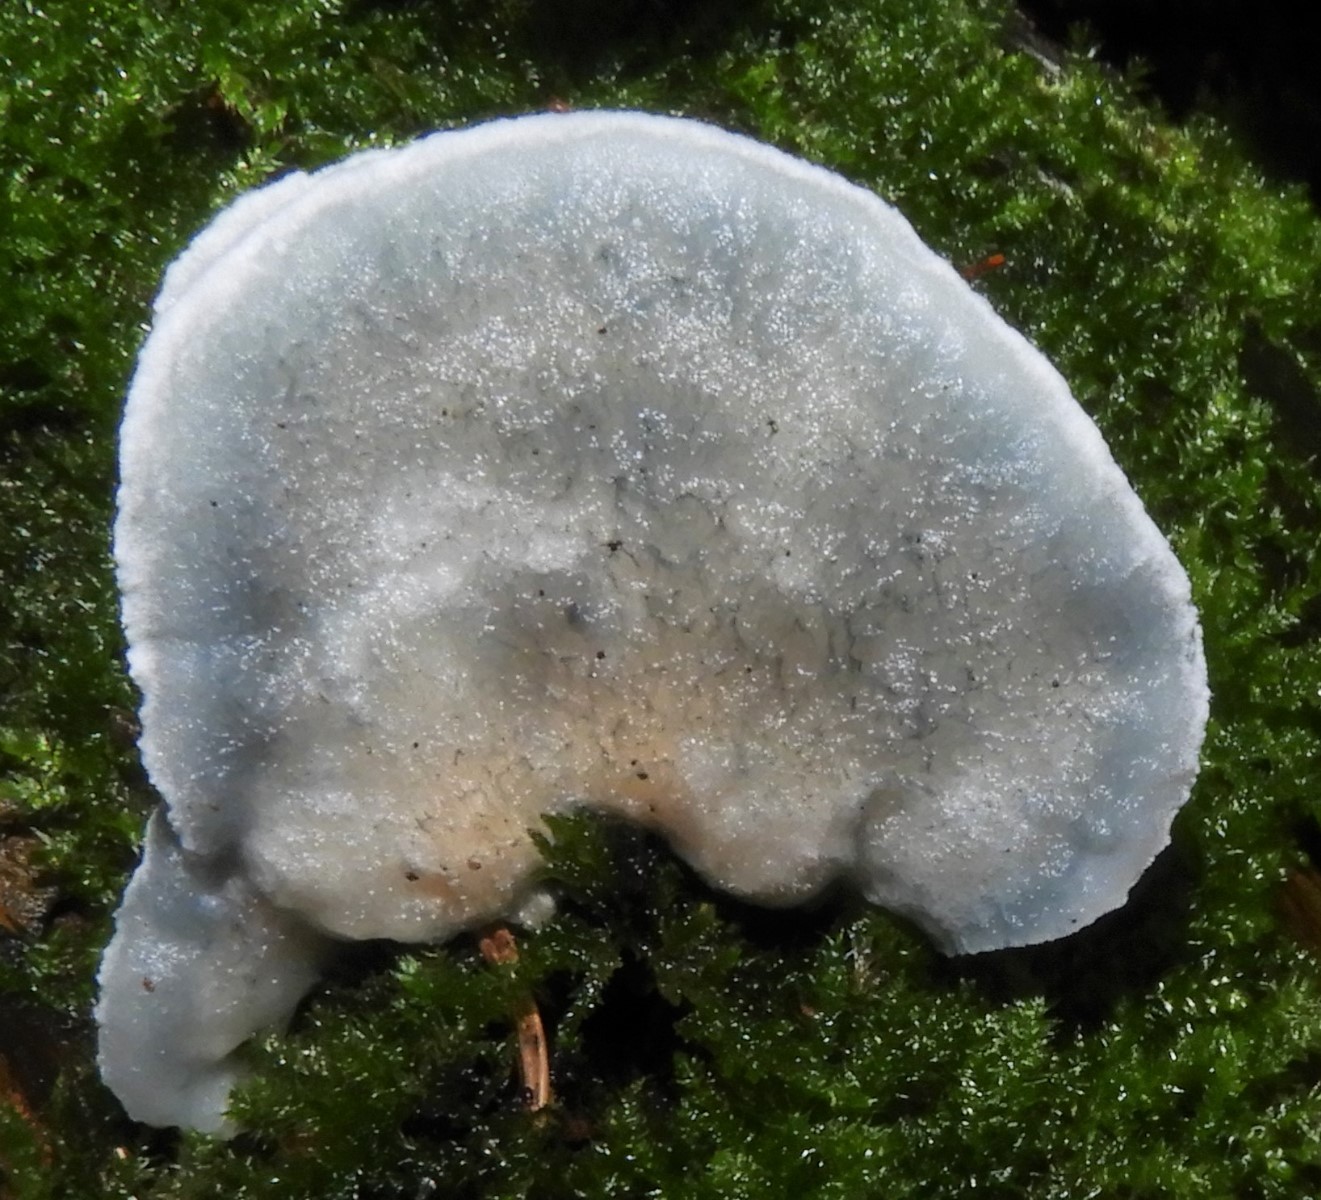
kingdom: Fungi
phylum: Basidiomycota
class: Agaricomycetes
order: Polyporales
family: Polyporaceae
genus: Cyanosporus
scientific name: Cyanosporus alni
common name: blegblå kødporesvamp
